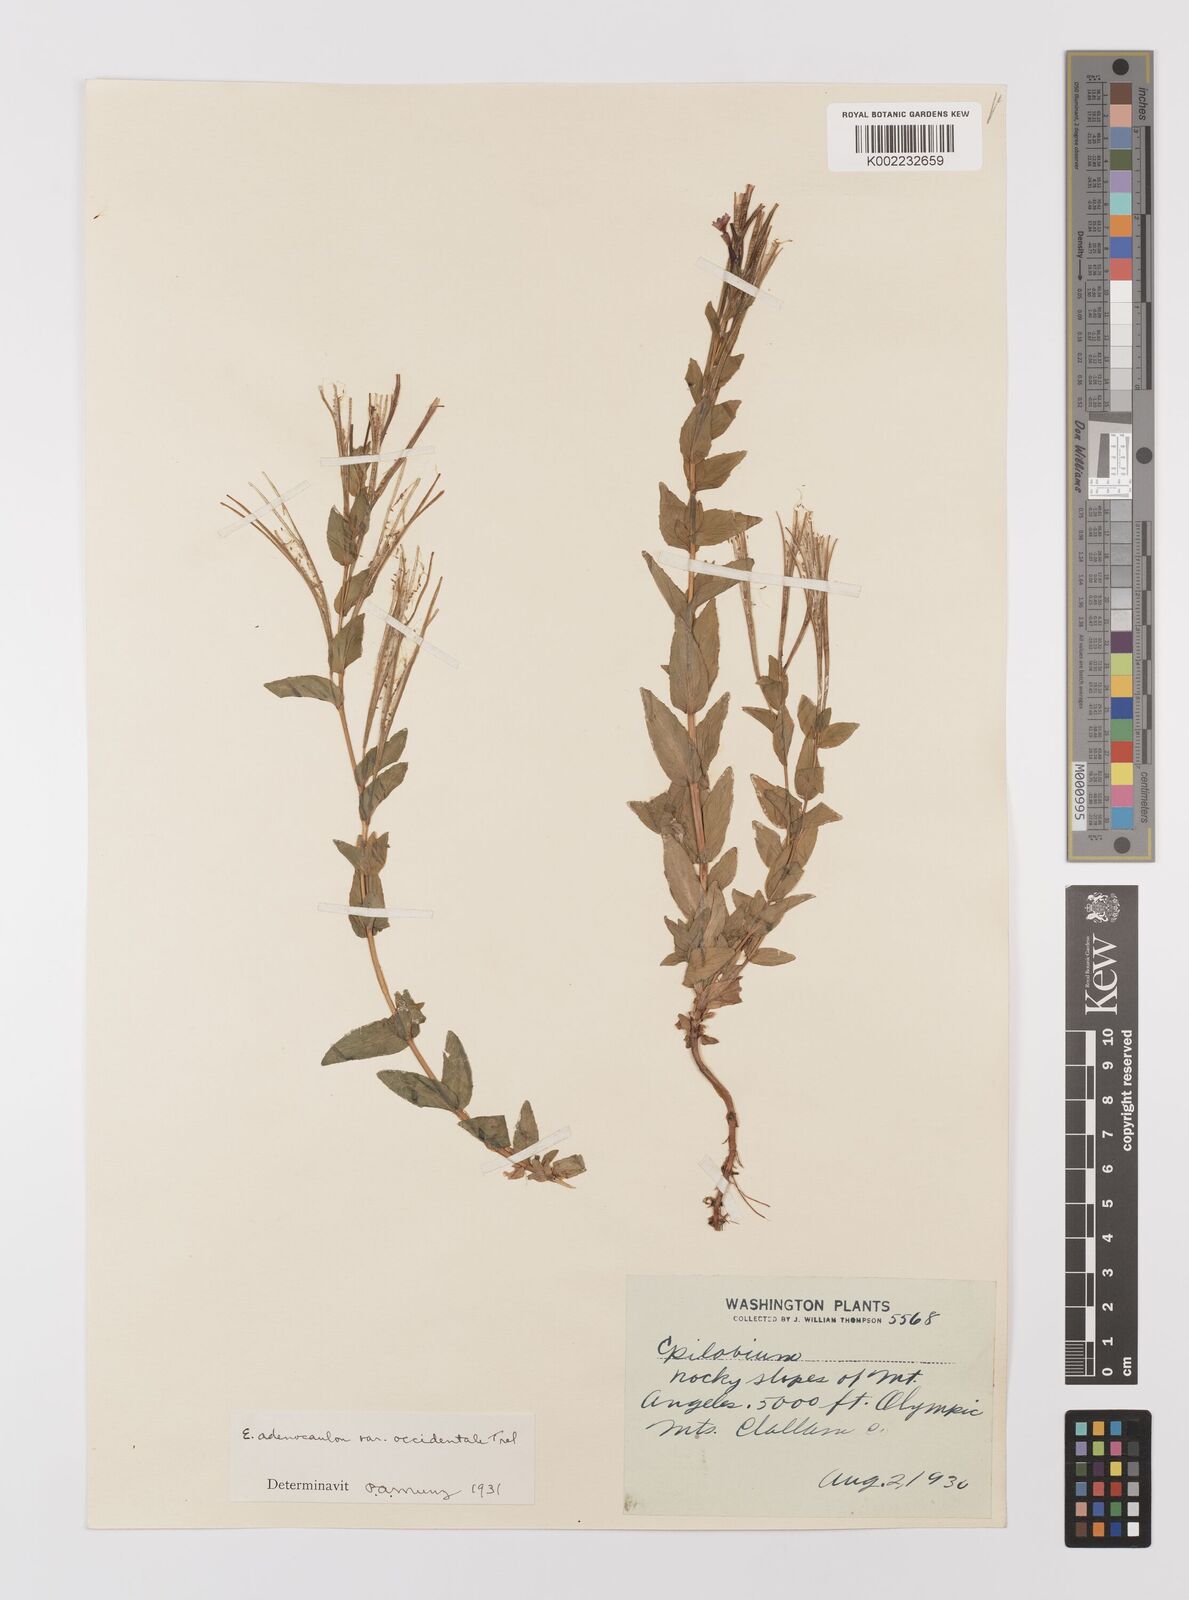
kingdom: Plantae
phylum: Tracheophyta
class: Magnoliopsida
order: Myrtales
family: Onagraceae
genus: Epilobium
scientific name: Epilobium ciliatum
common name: American willowherb
